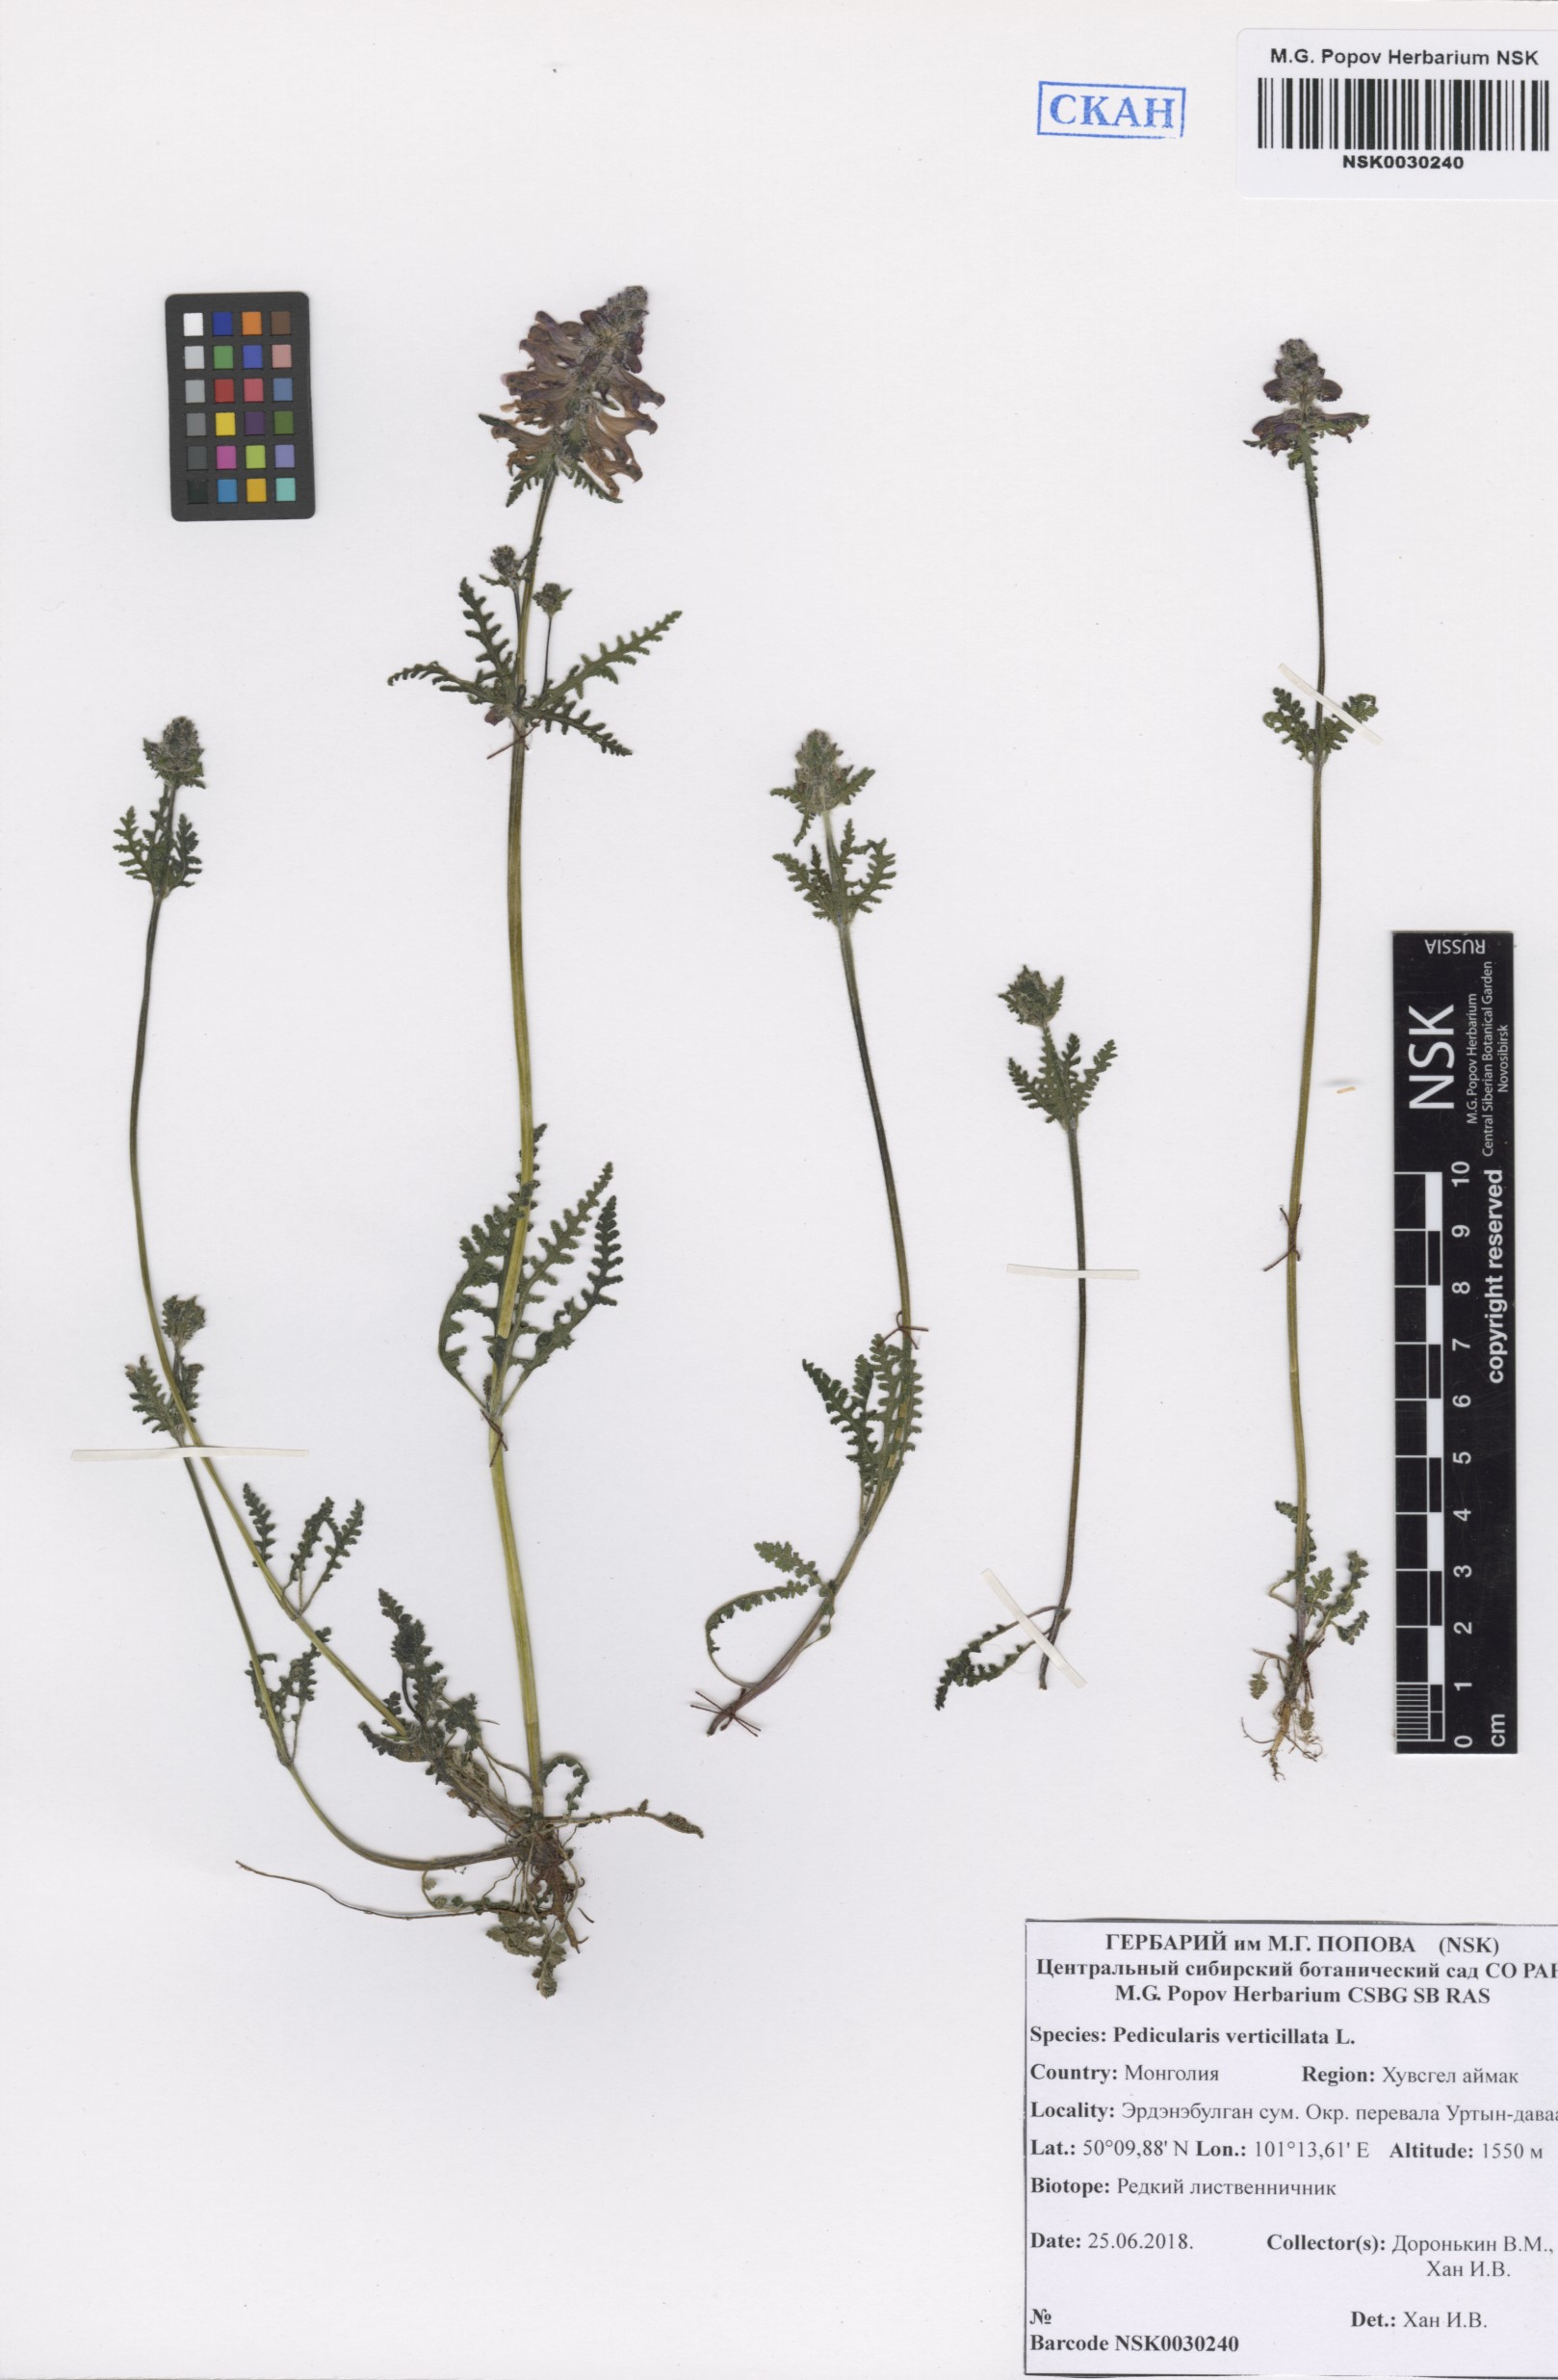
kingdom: Plantae
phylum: Tracheophyta
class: Magnoliopsida
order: Lamiales
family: Orobanchaceae
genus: Pedicularis
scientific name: Pedicularis verticillata
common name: Whorled lousewort
